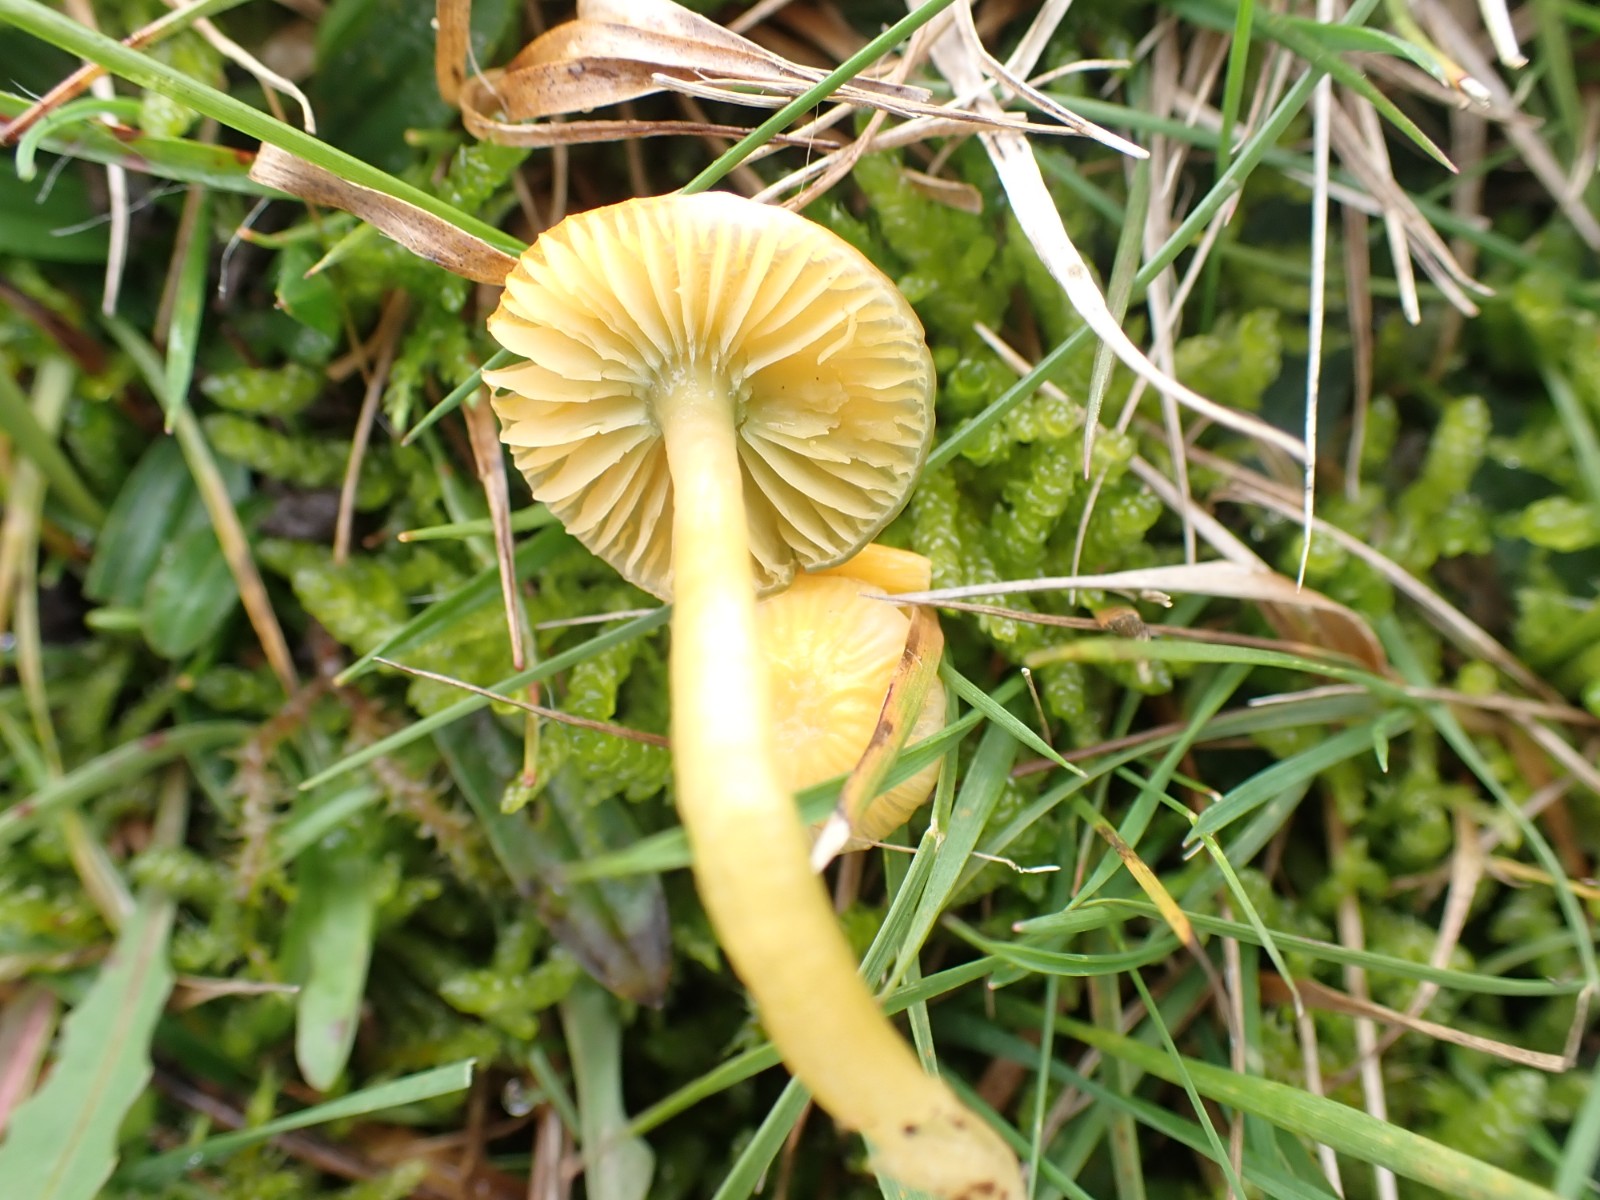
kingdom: Fungi
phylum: Basidiomycota
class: Agaricomycetes
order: Agaricales
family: Hygrophoraceae
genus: Gliophorus
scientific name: Gliophorus psittacinus
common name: papegøje-vokshat
